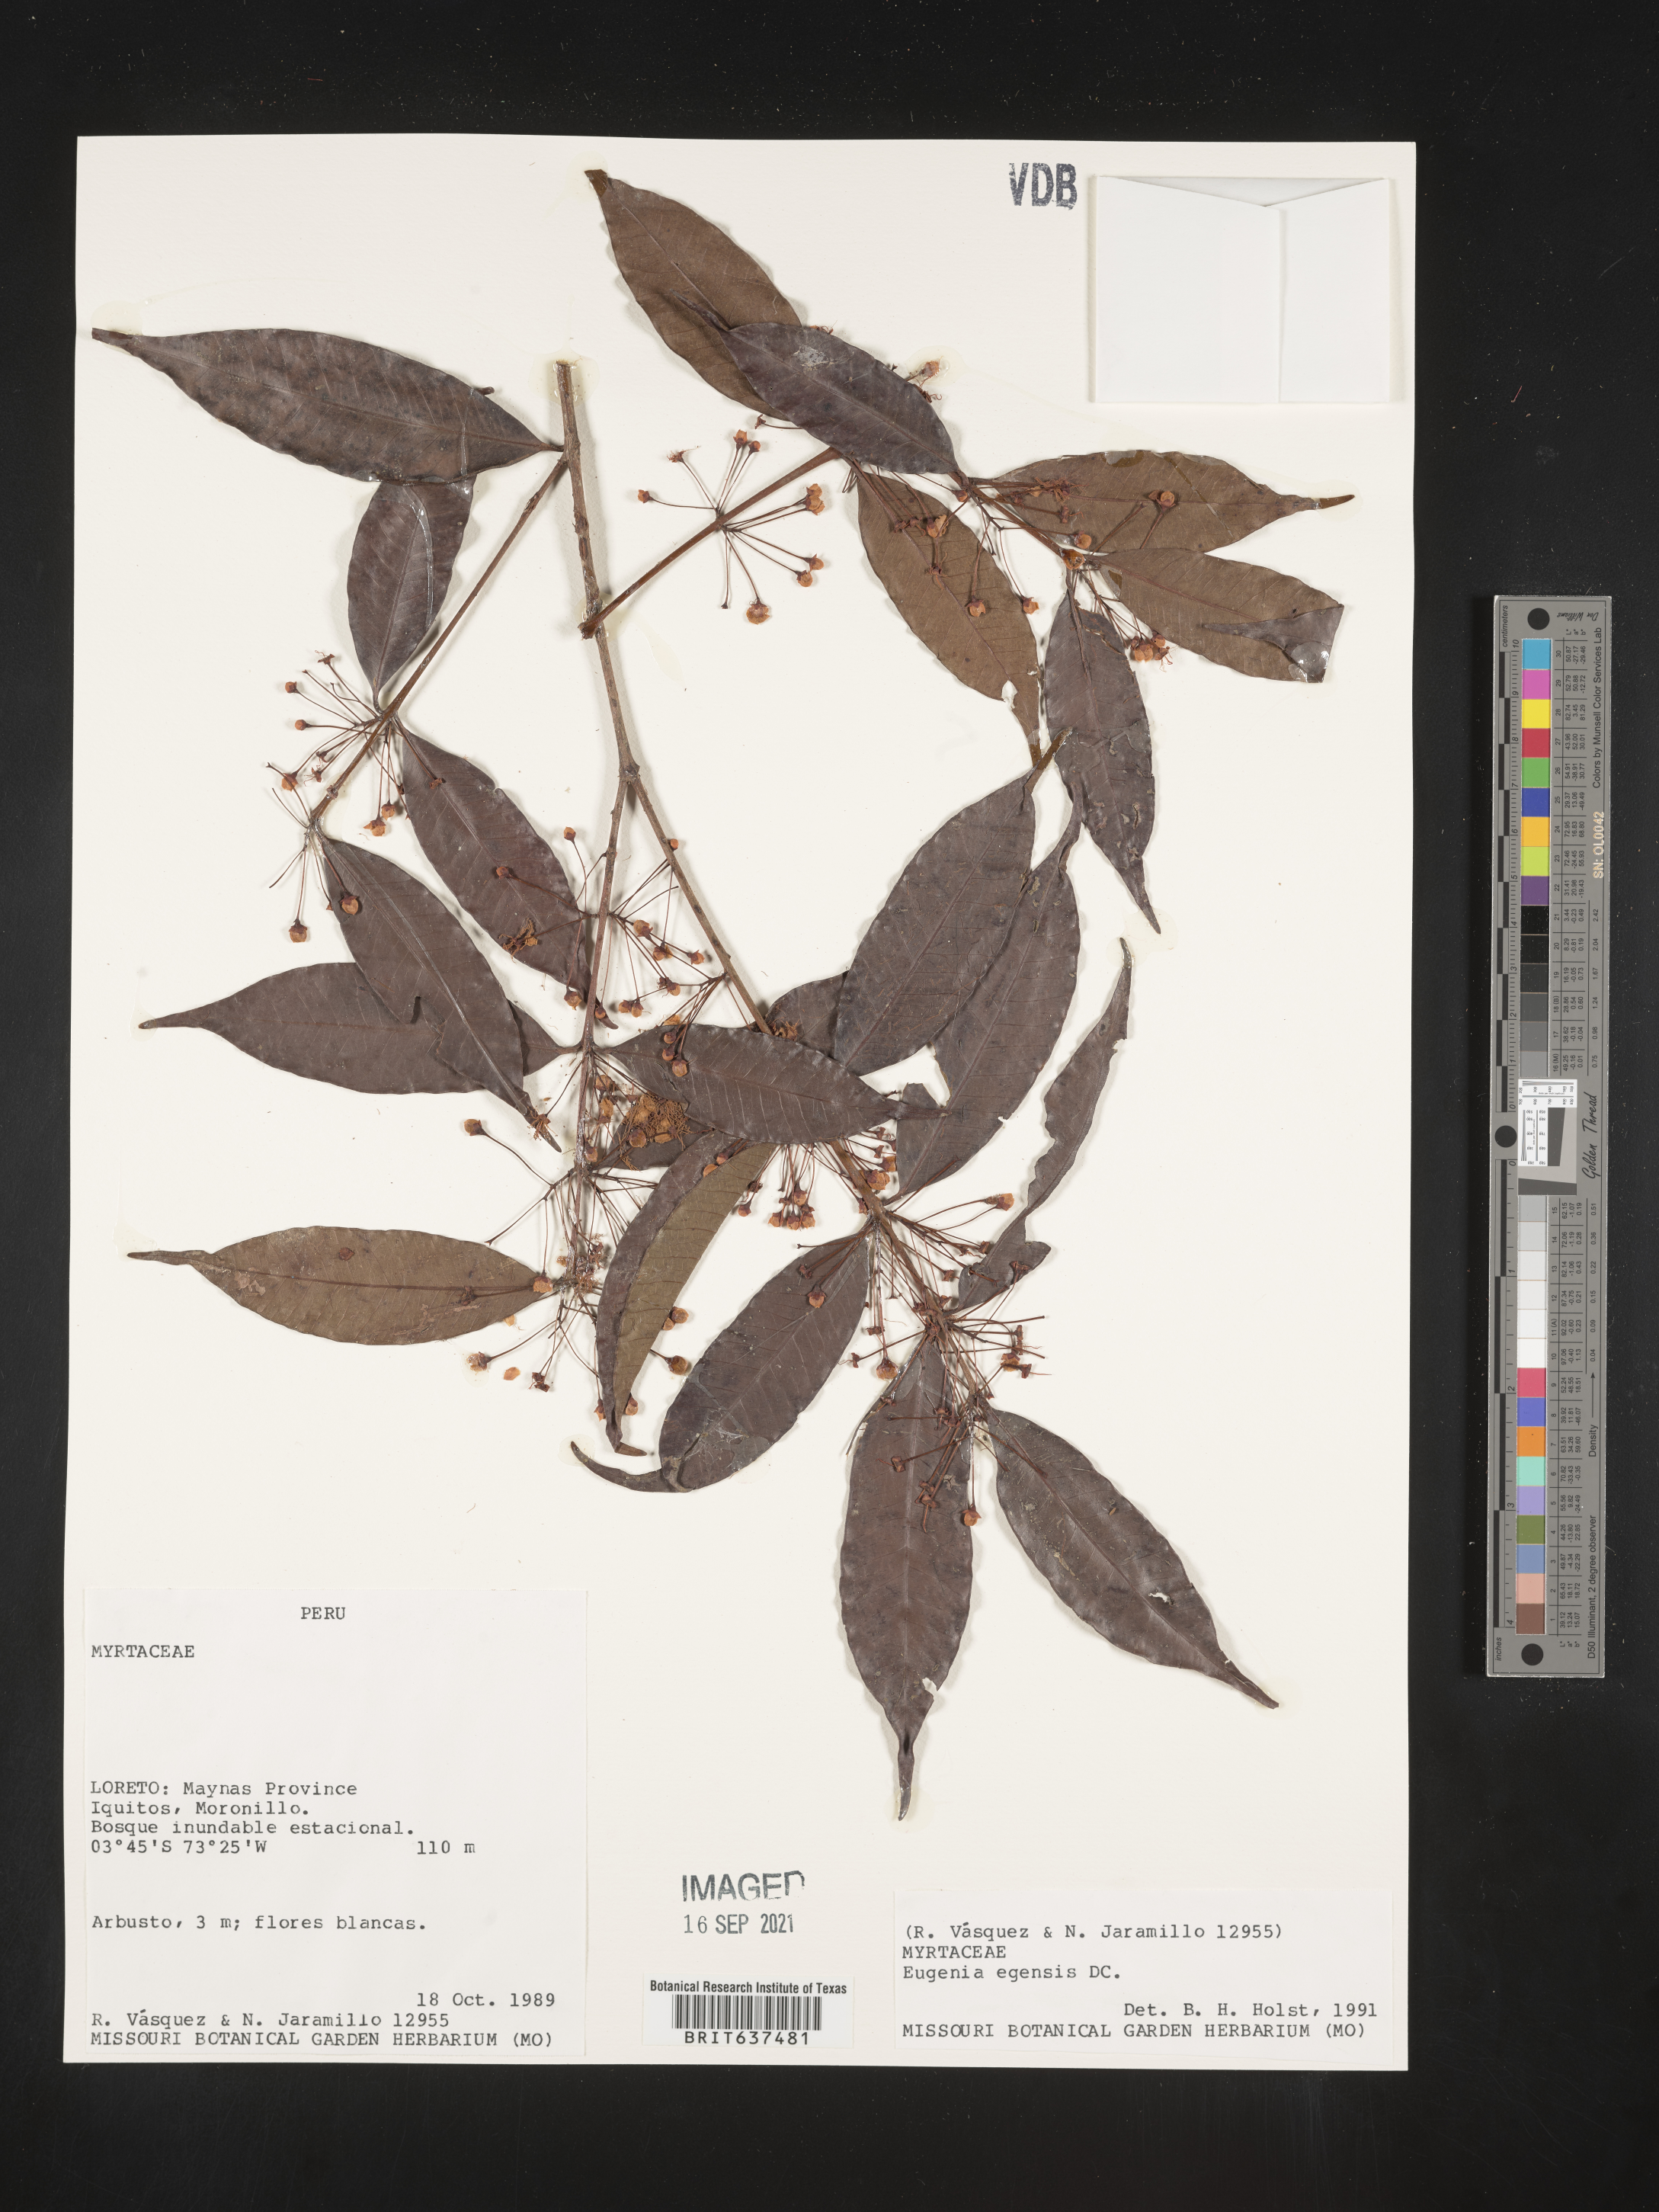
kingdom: Plantae
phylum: Tracheophyta
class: Magnoliopsida
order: Myrtales
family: Myrtaceae
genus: Eugenia
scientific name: Eugenia
